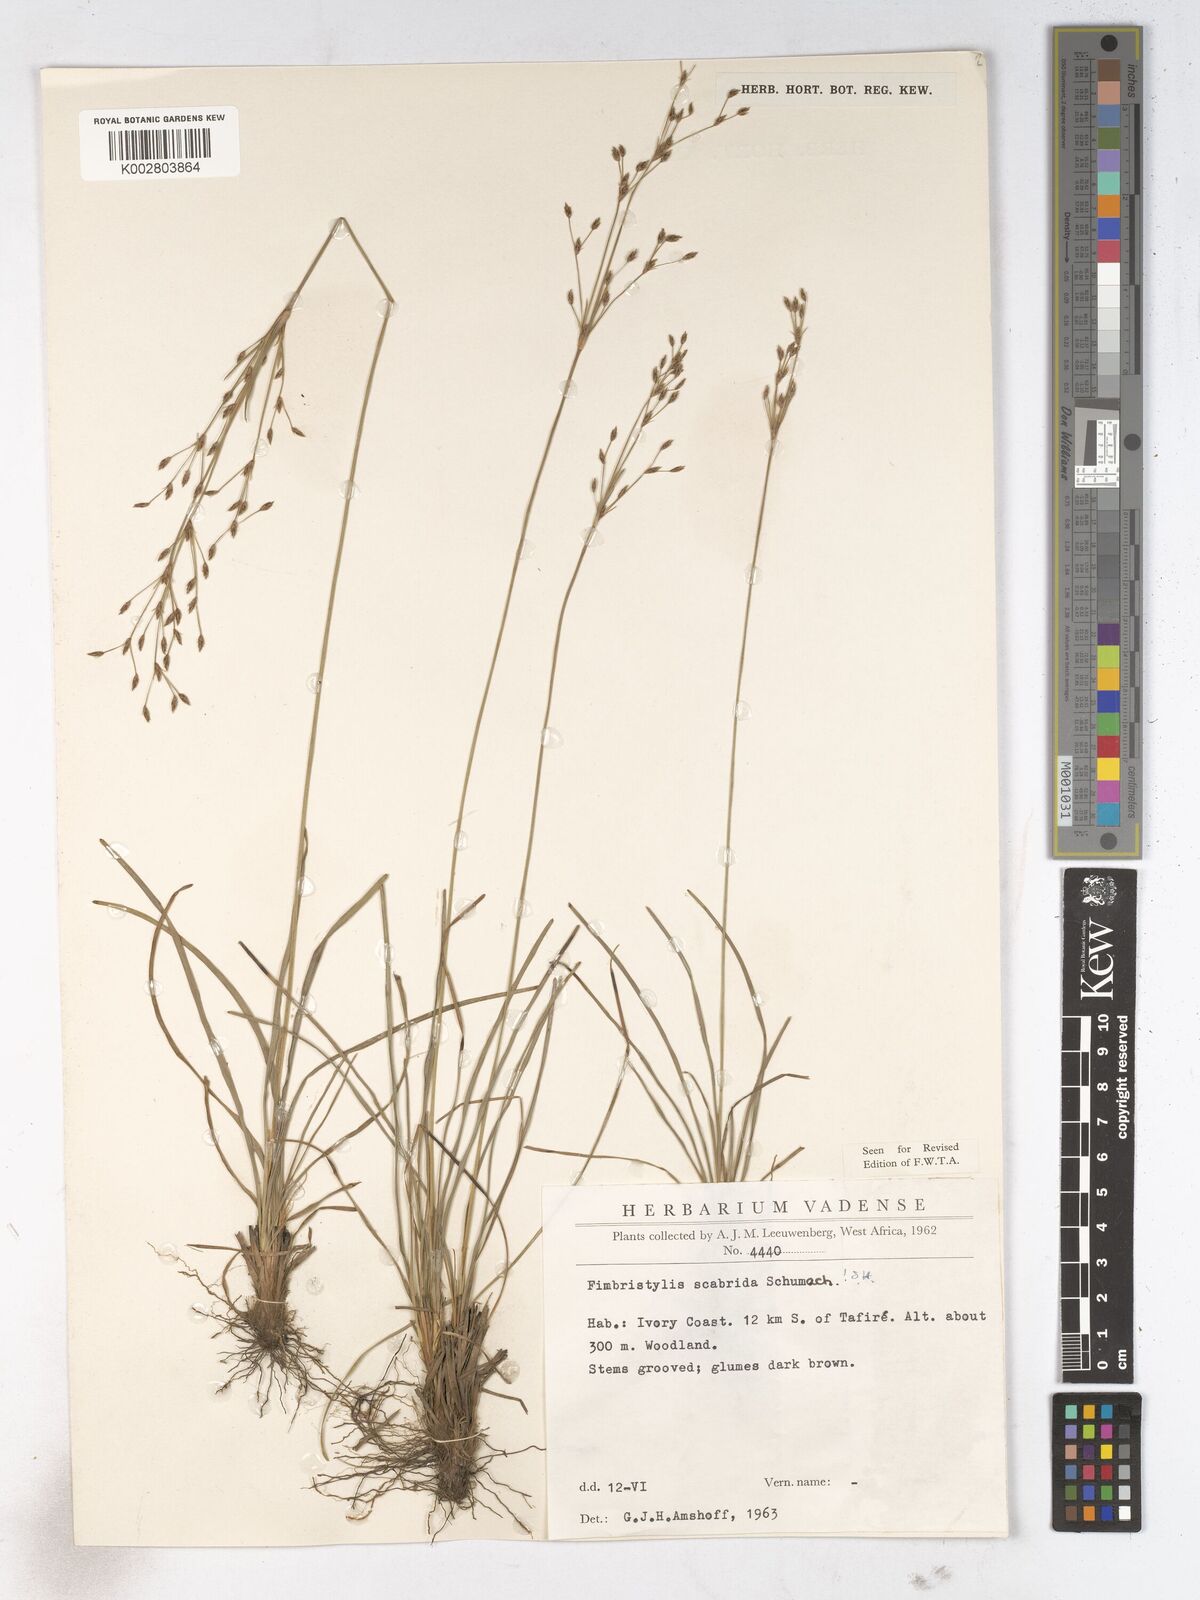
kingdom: Plantae
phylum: Tracheophyta
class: Liliopsida
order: Poales
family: Cyperaceae
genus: Fimbristylis
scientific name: Fimbristylis scabrida
